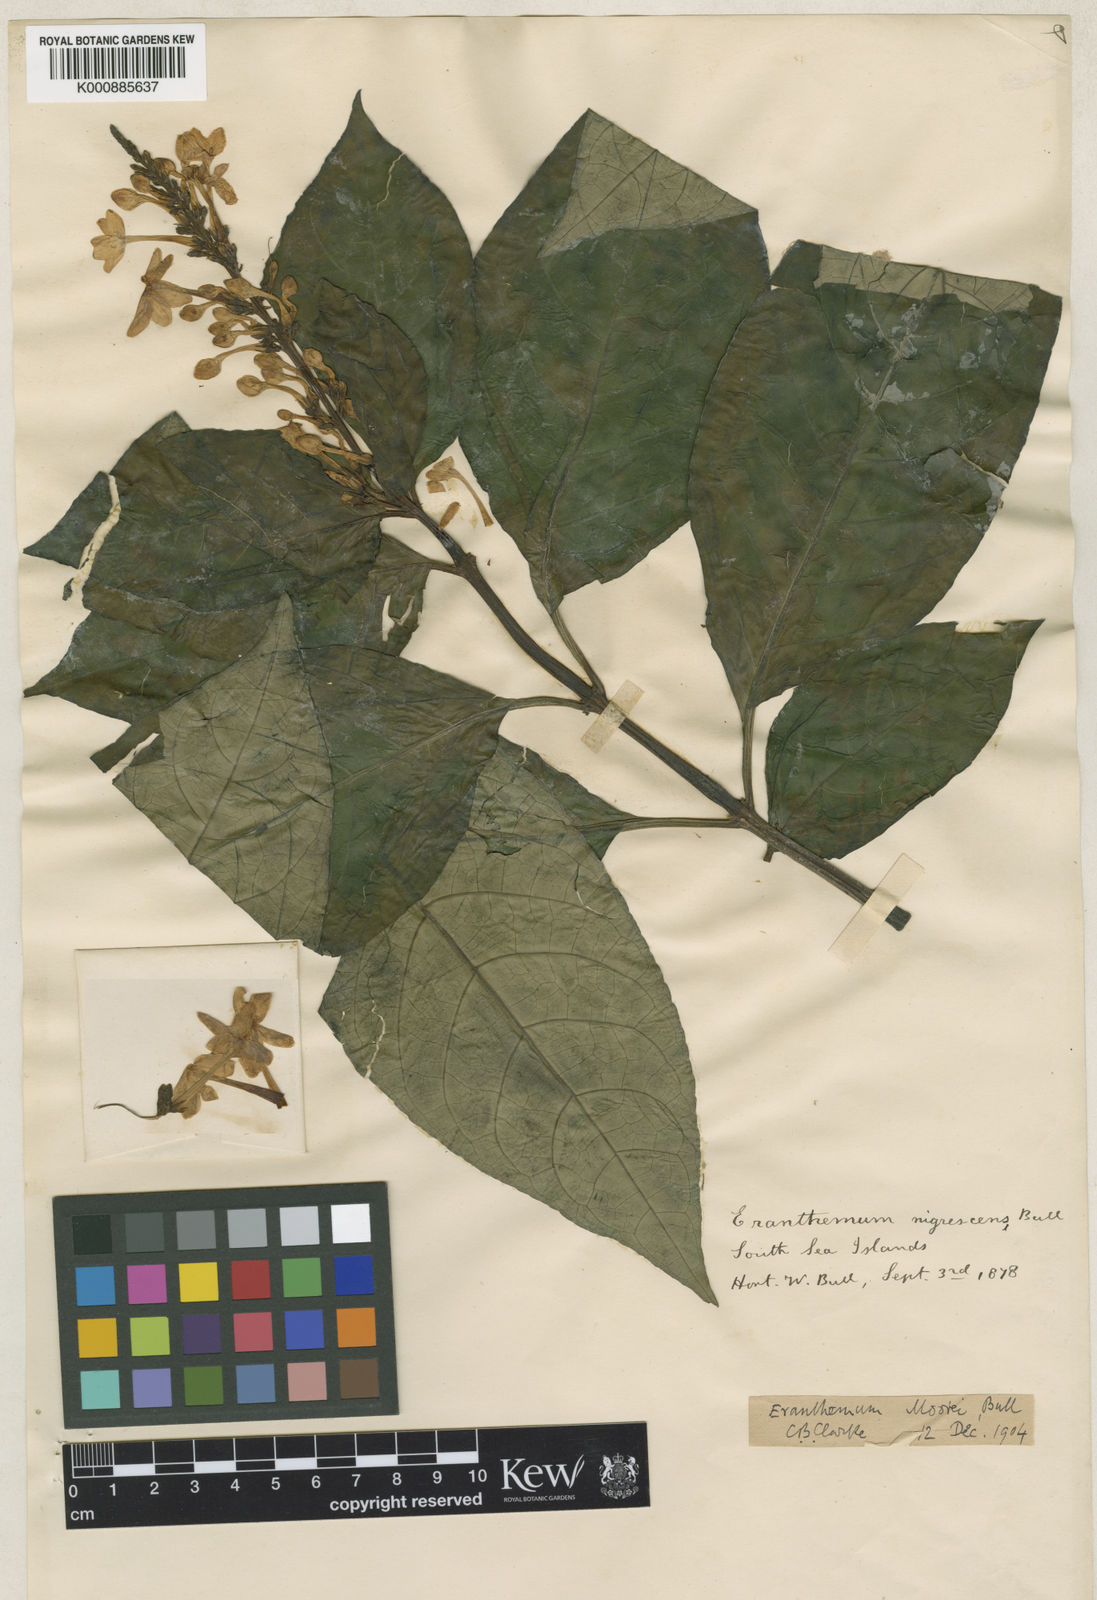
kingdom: Plantae
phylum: Tracheophyta
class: Magnoliopsida
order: Lamiales
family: Acanthaceae
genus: Pseuderanthemum
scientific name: Pseuderanthemum
